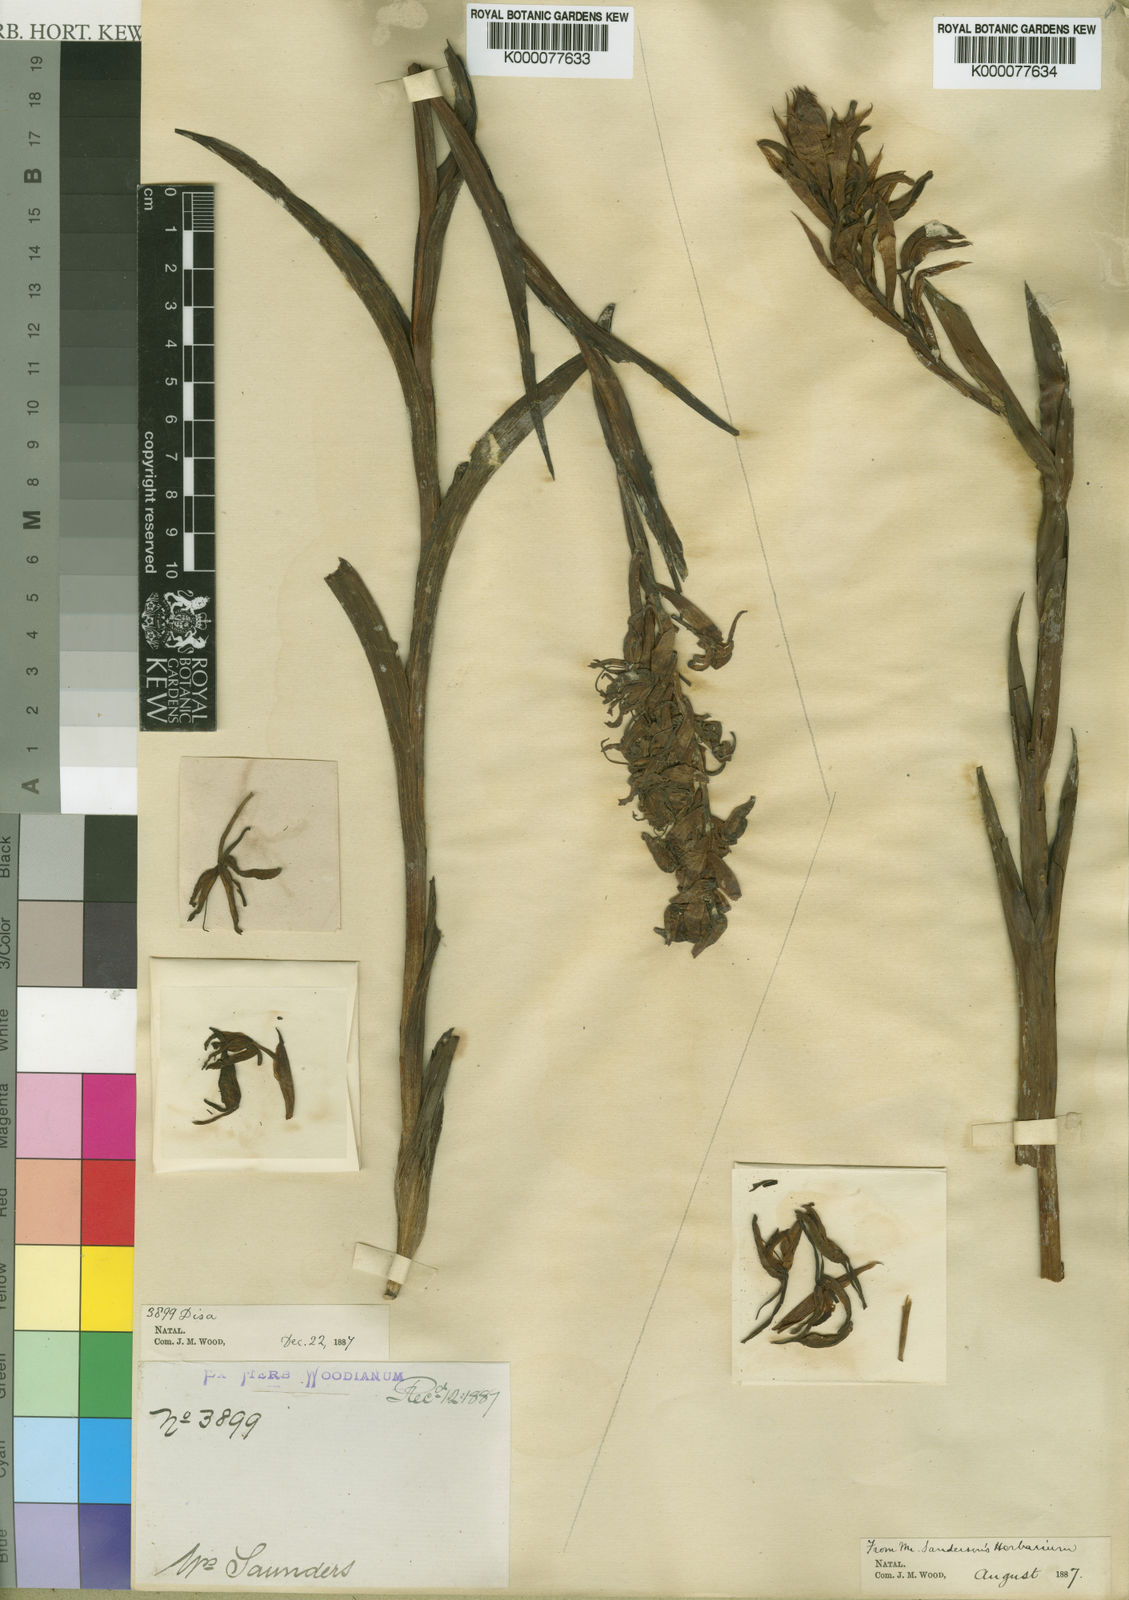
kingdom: Plantae
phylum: Tracheophyta
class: Liliopsida
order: Asparagales
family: Orchidaceae
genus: Disa
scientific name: Disa nervosa
